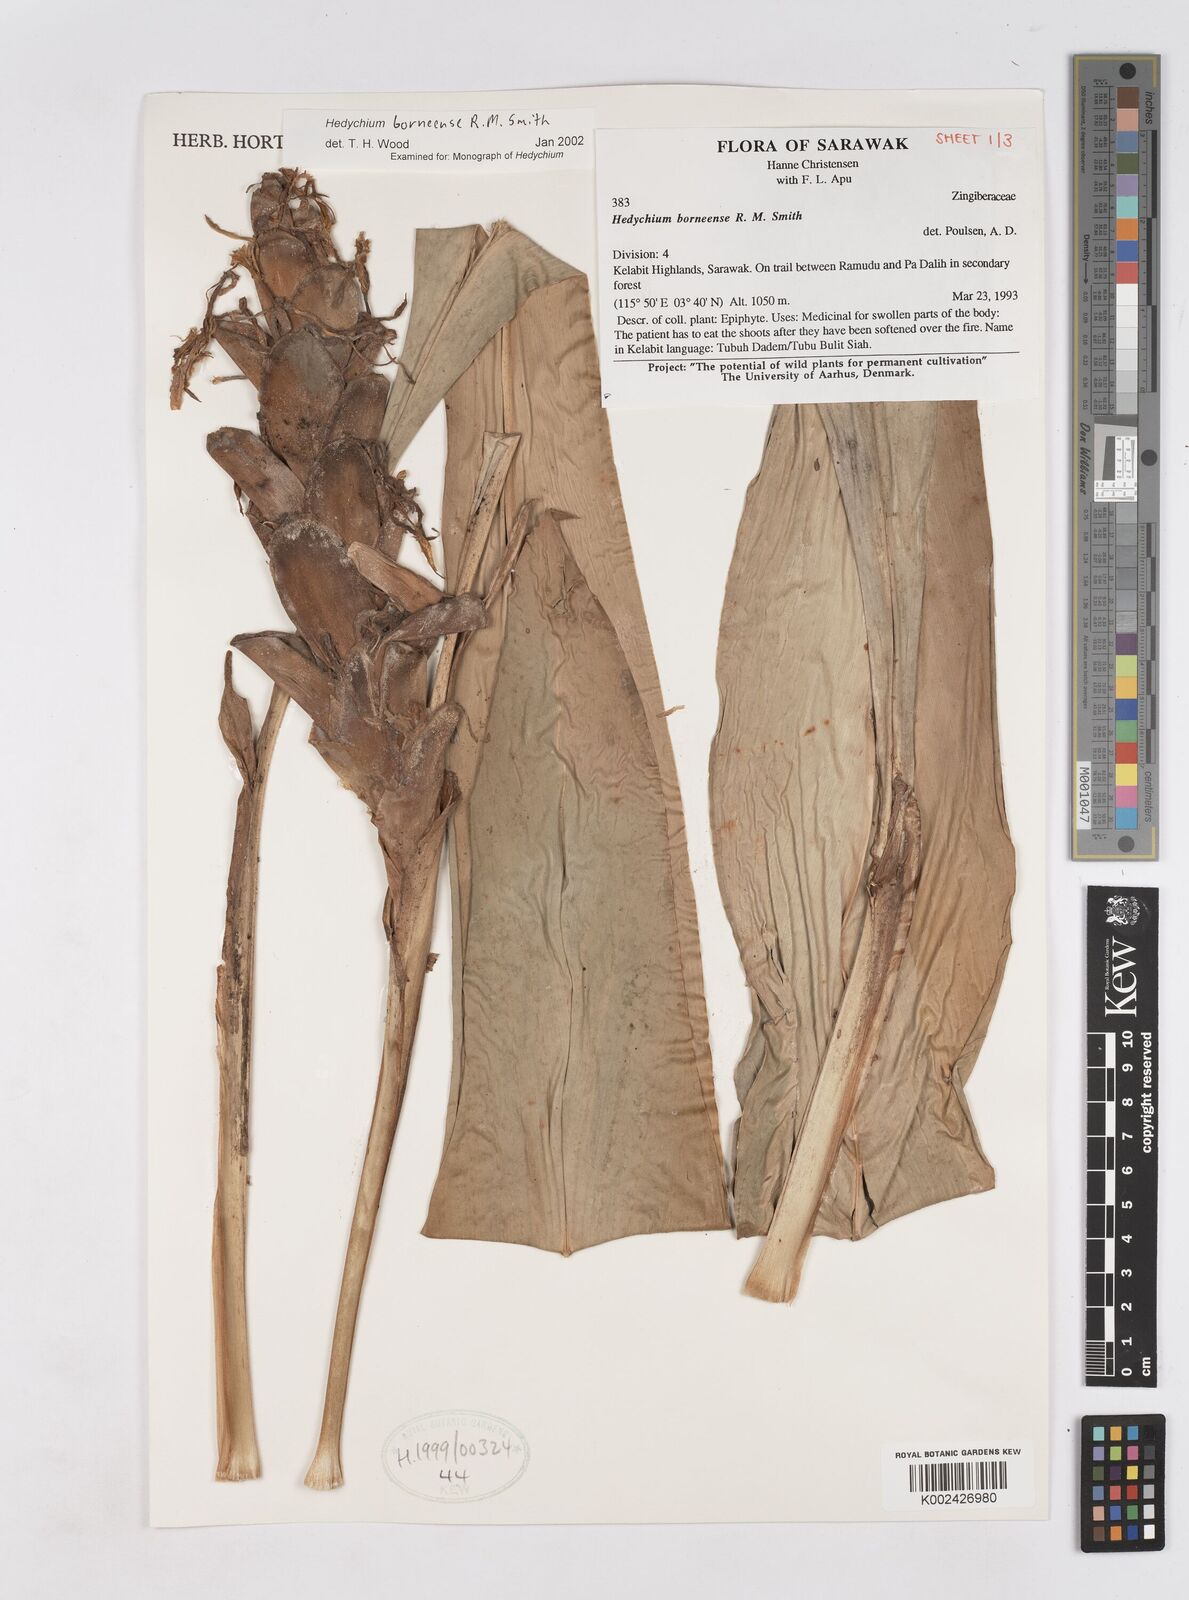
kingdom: Plantae
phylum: Tracheophyta
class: Liliopsida
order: Zingiberales
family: Zingiberaceae
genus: Hedychium
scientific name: Hedychium borneense
